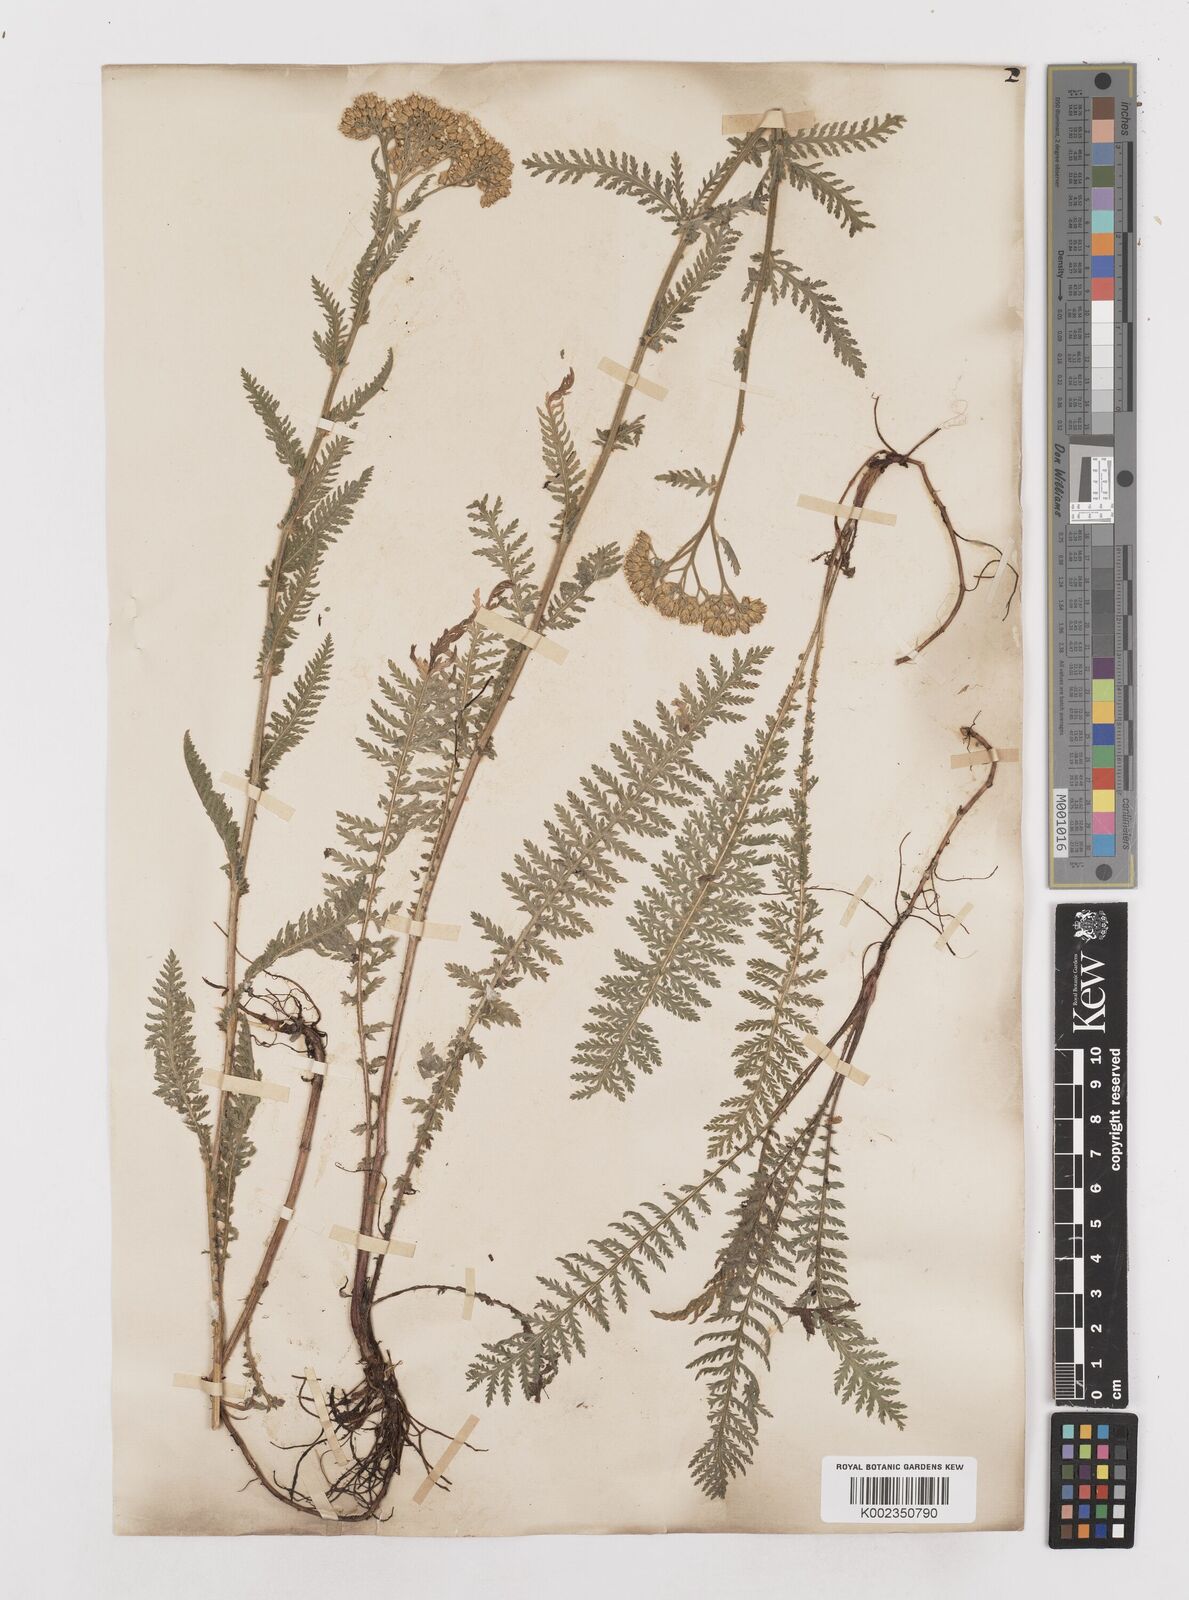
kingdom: Plantae
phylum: Tracheophyta
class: Magnoliopsida
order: Asterales
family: Asteraceae
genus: Achillea
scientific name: Achillea distans
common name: Tall yarrow
